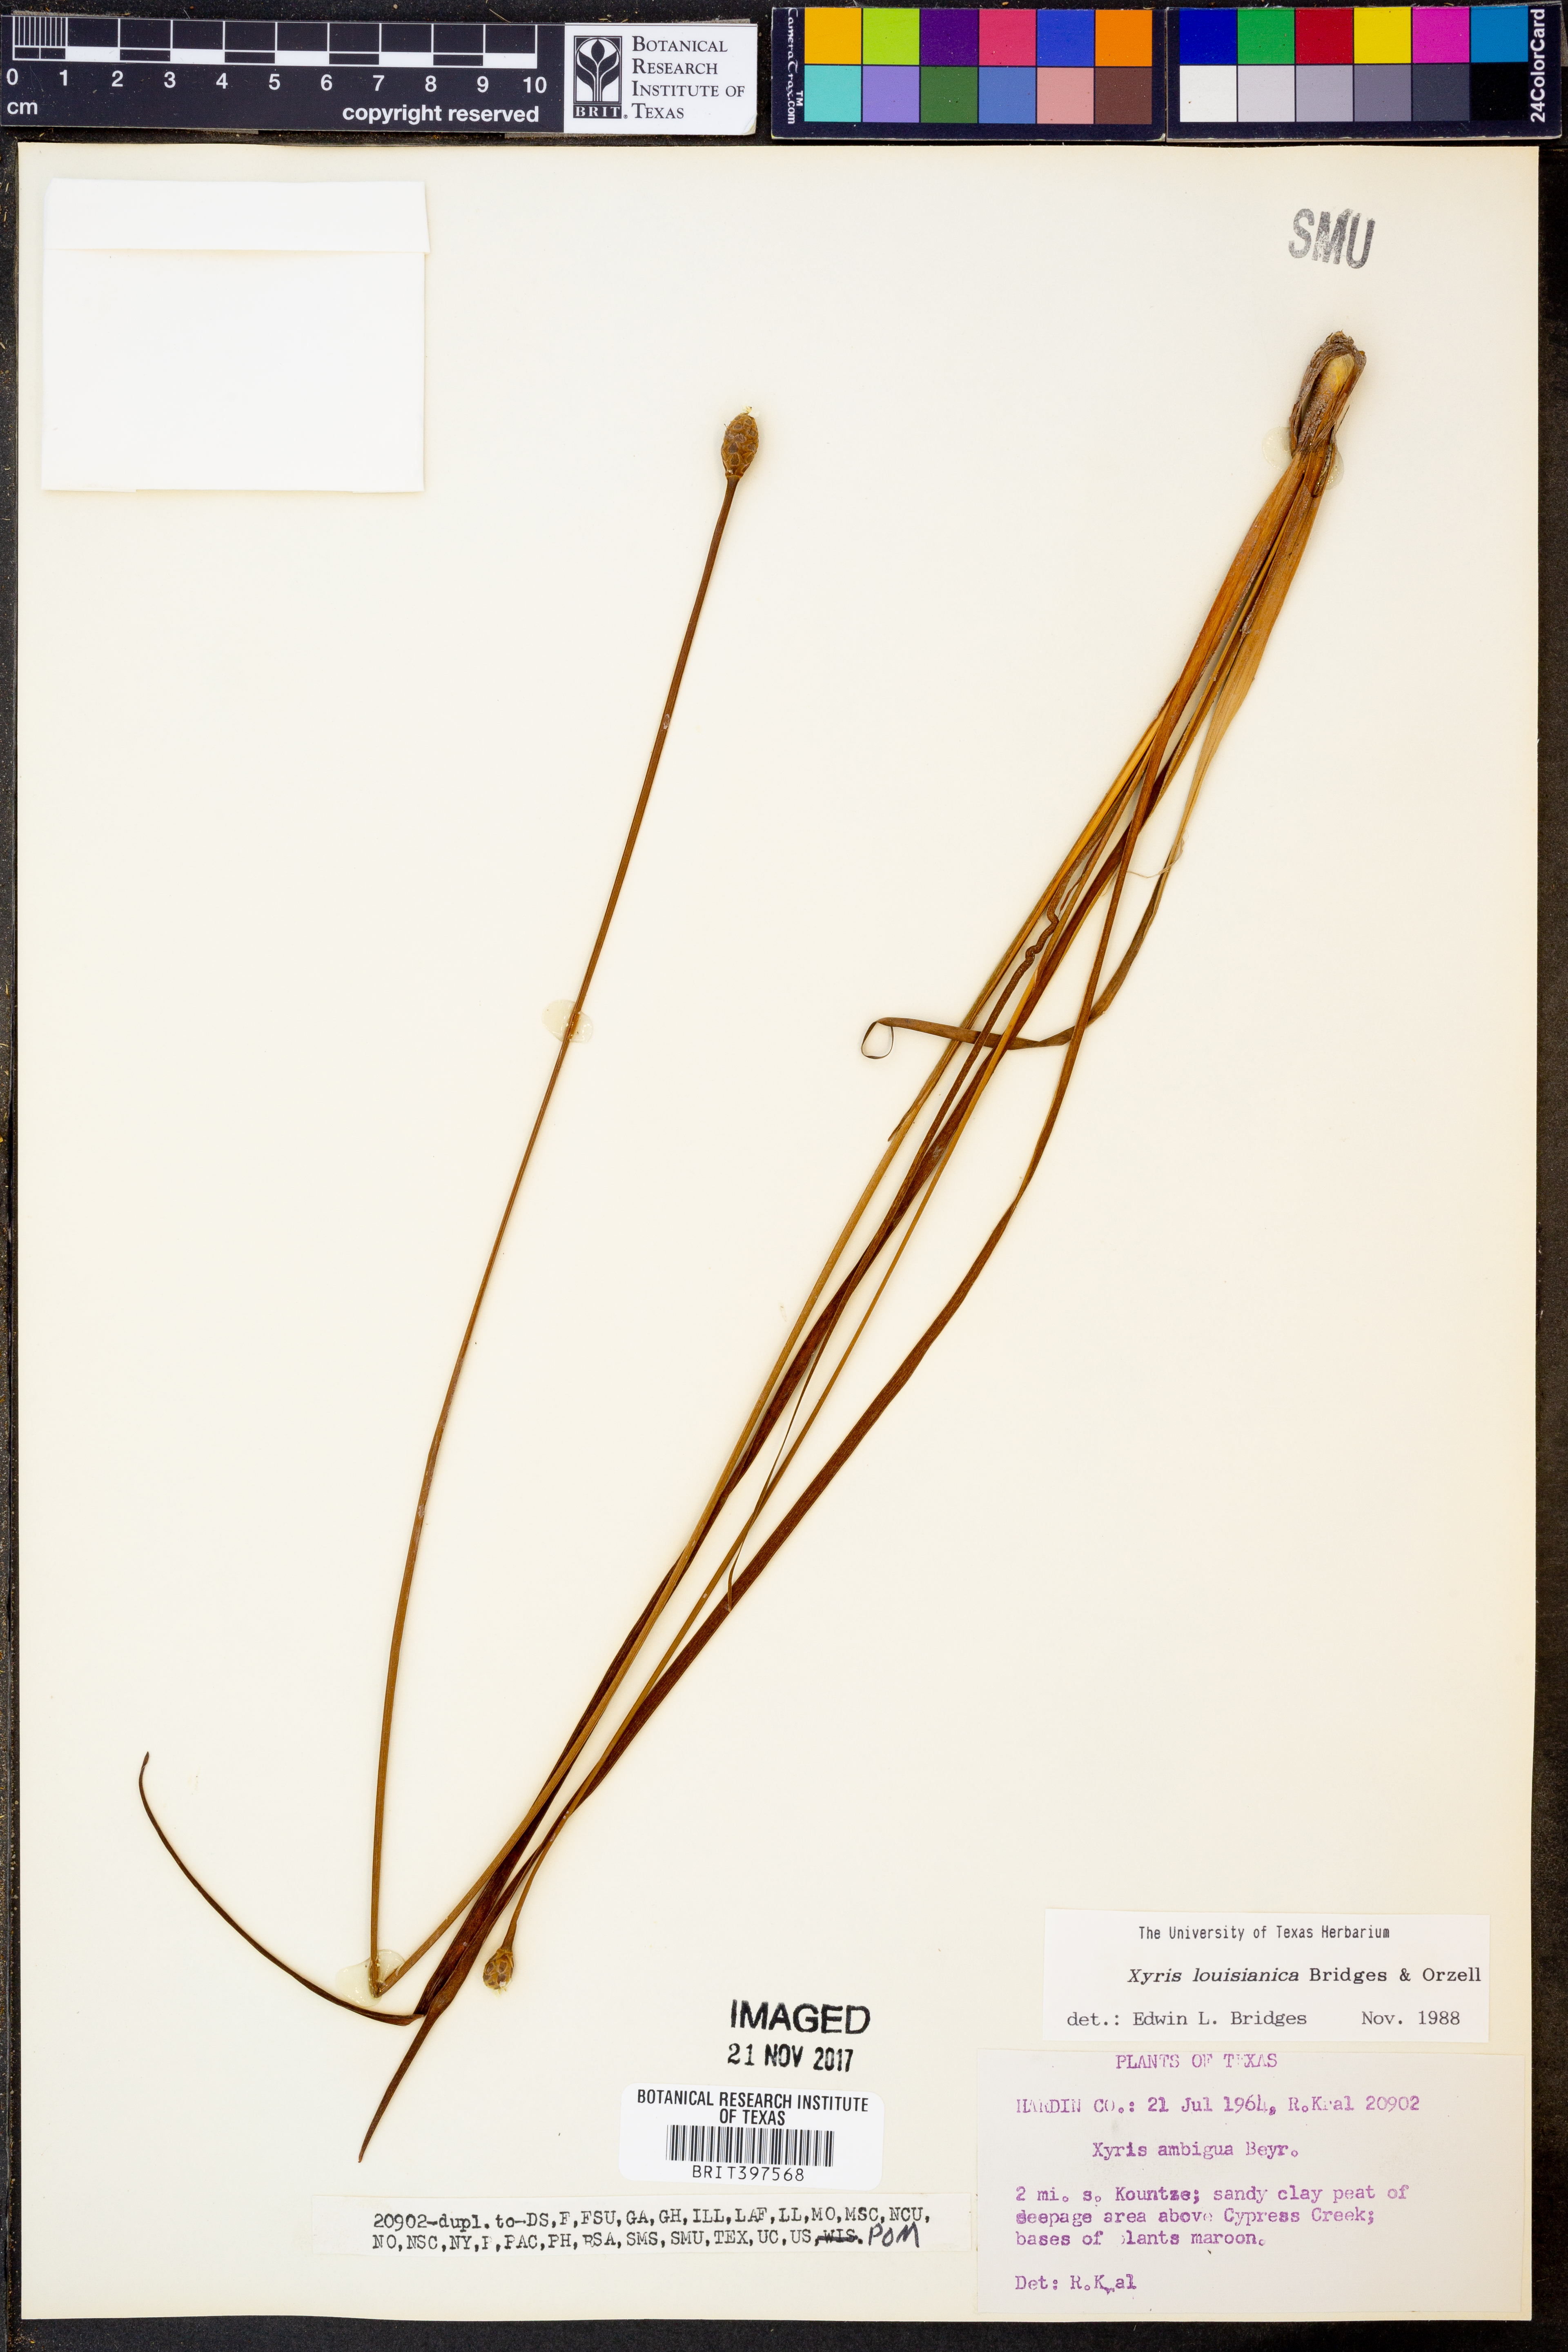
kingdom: Plantae
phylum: Tracheophyta
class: Liliopsida
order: Poales
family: Xyridaceae
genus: Xyris
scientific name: Xyris stricta
